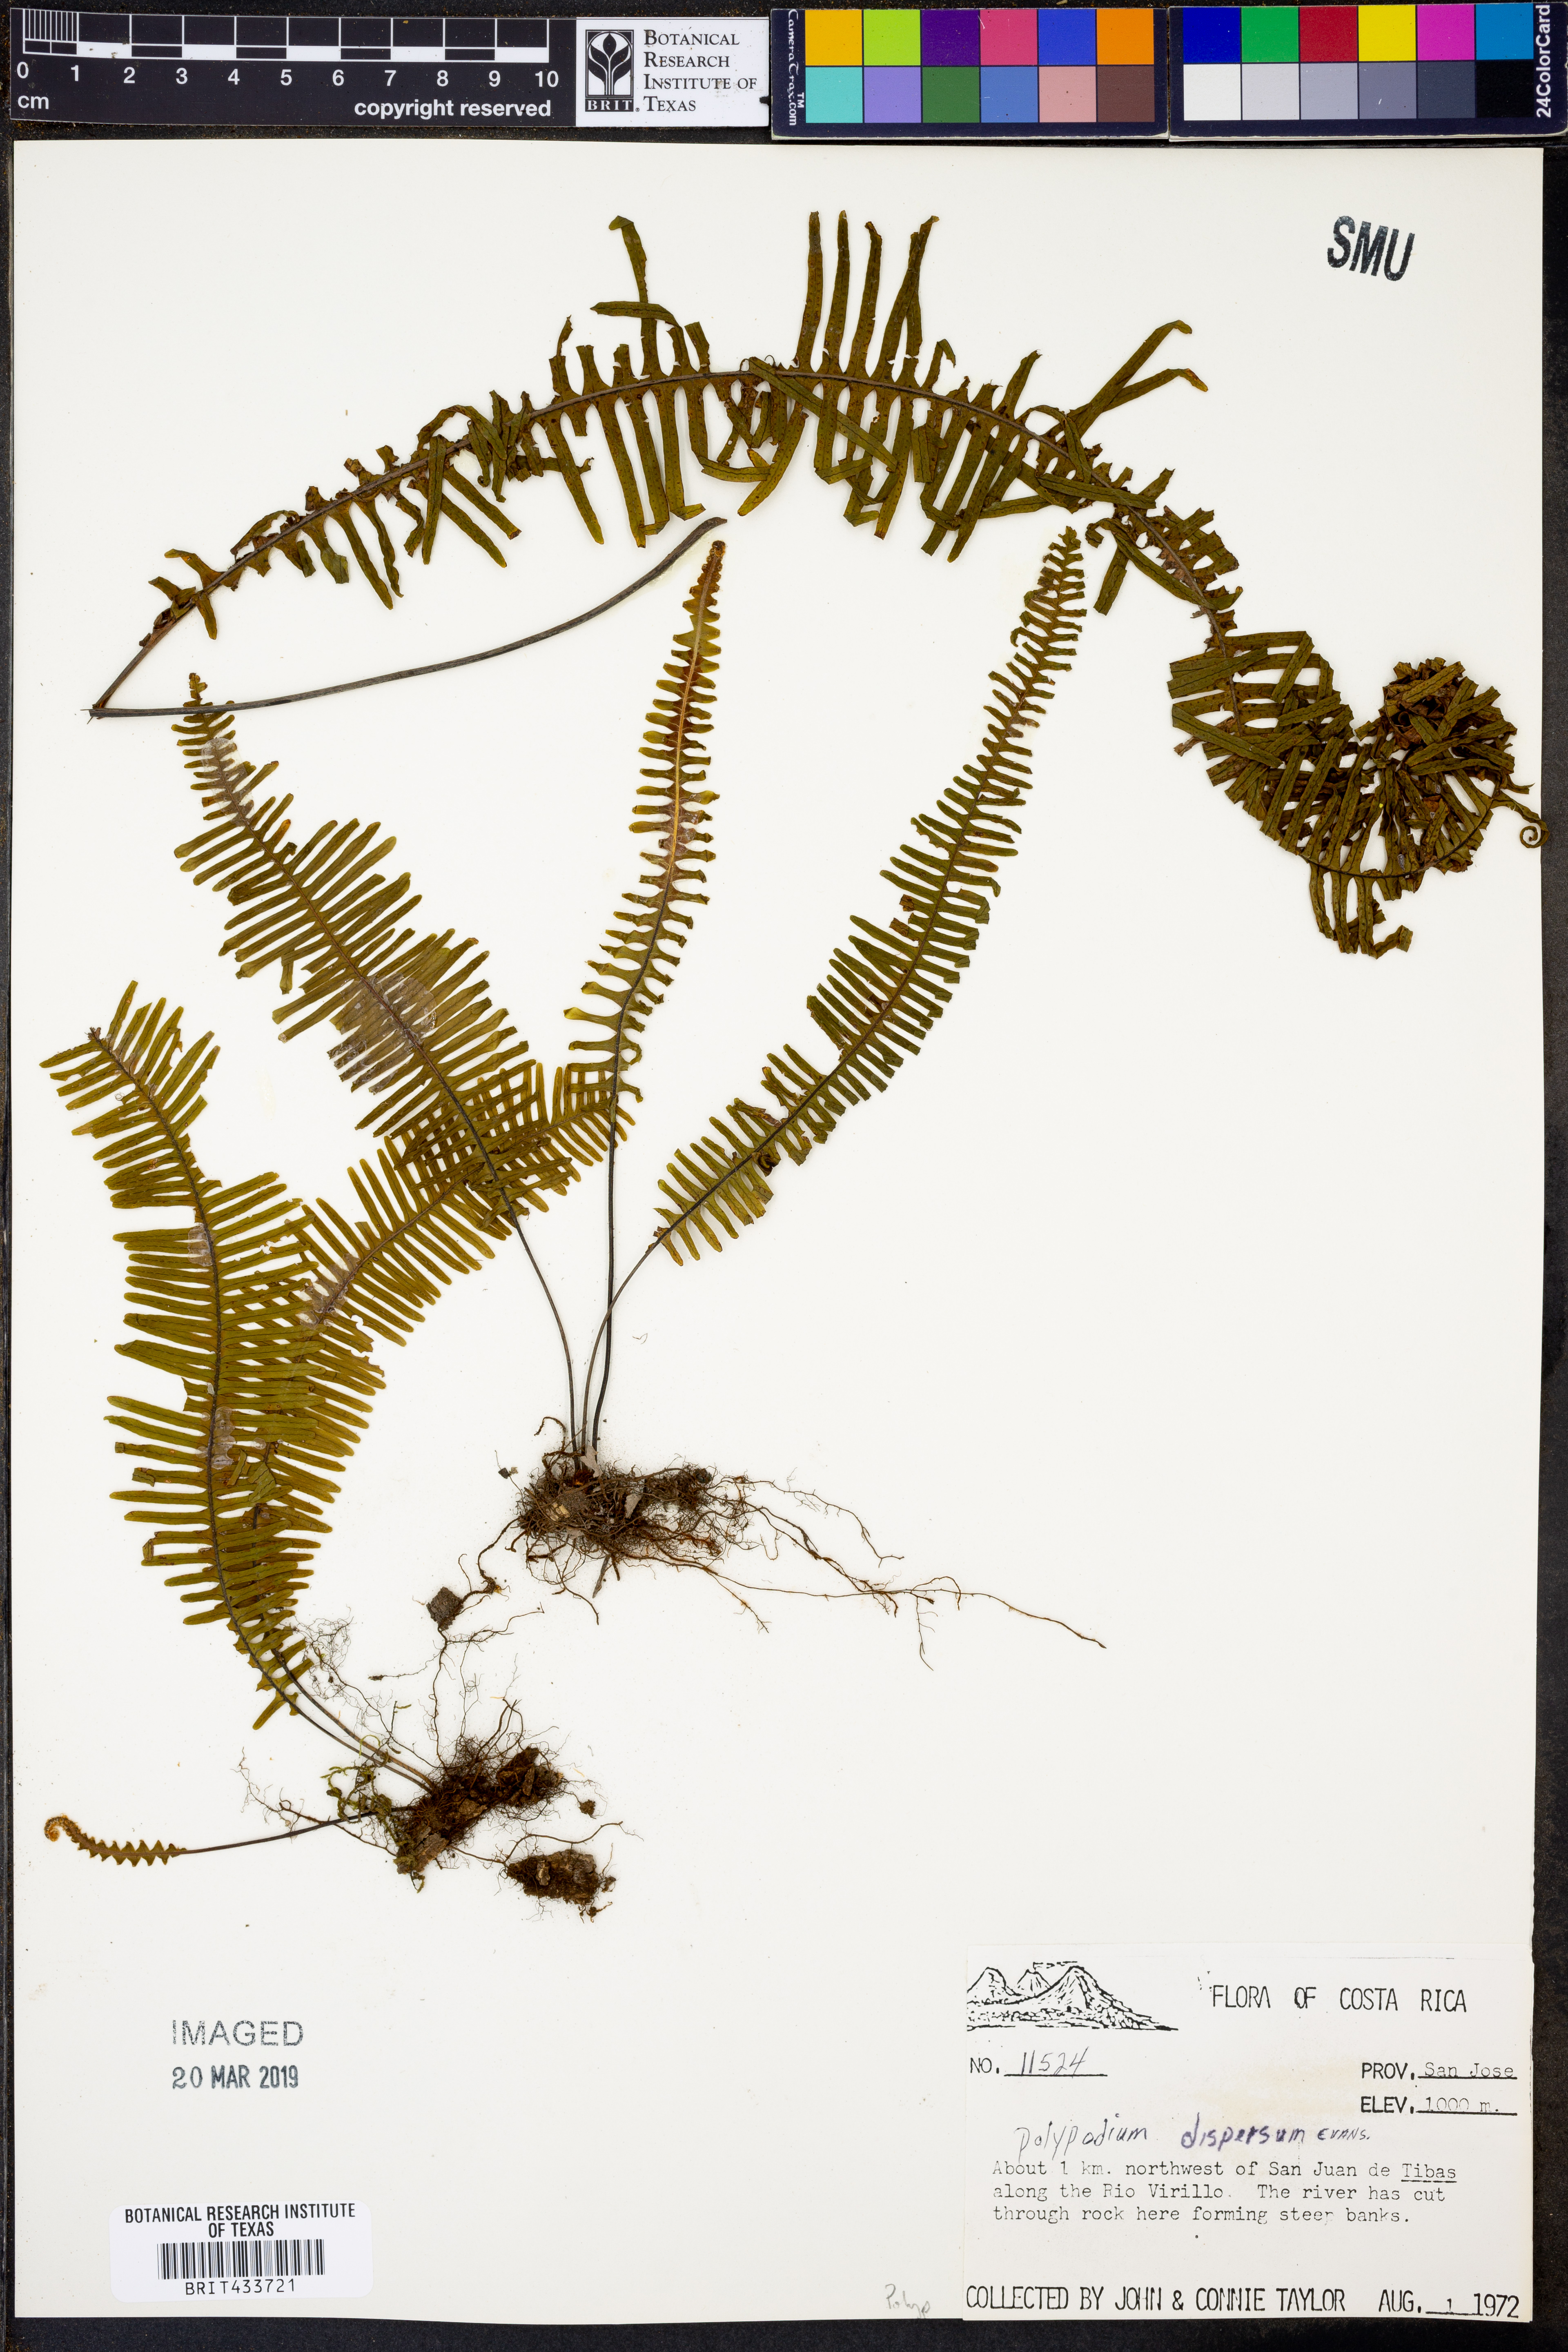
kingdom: Plantae
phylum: Tracheophyta
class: Polypodiopsida
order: Polypodiales
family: Polypodiaceae
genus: Pecluma
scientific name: Pecluma dispersa
